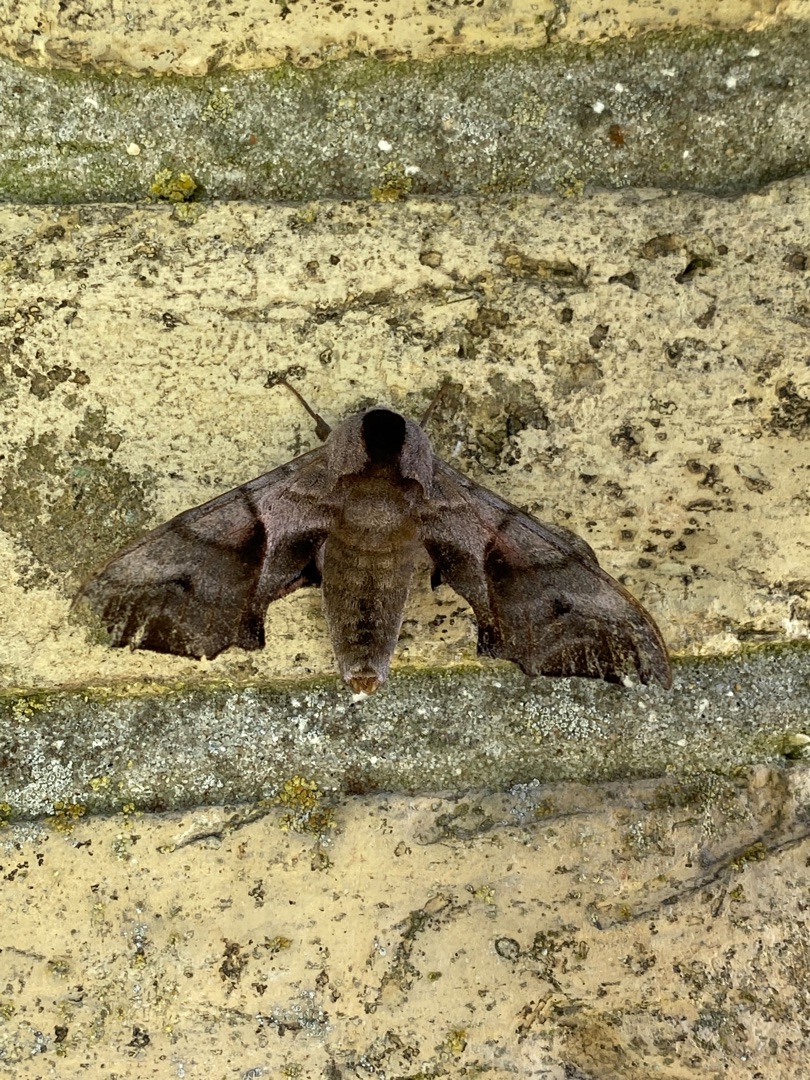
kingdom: Animalia
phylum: Arthropoda
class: Insecta
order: Lepidoptera
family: Sphingidae
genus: Smerinthus
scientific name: Smerinthus ocellata
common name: Aftenpåfugleøje
